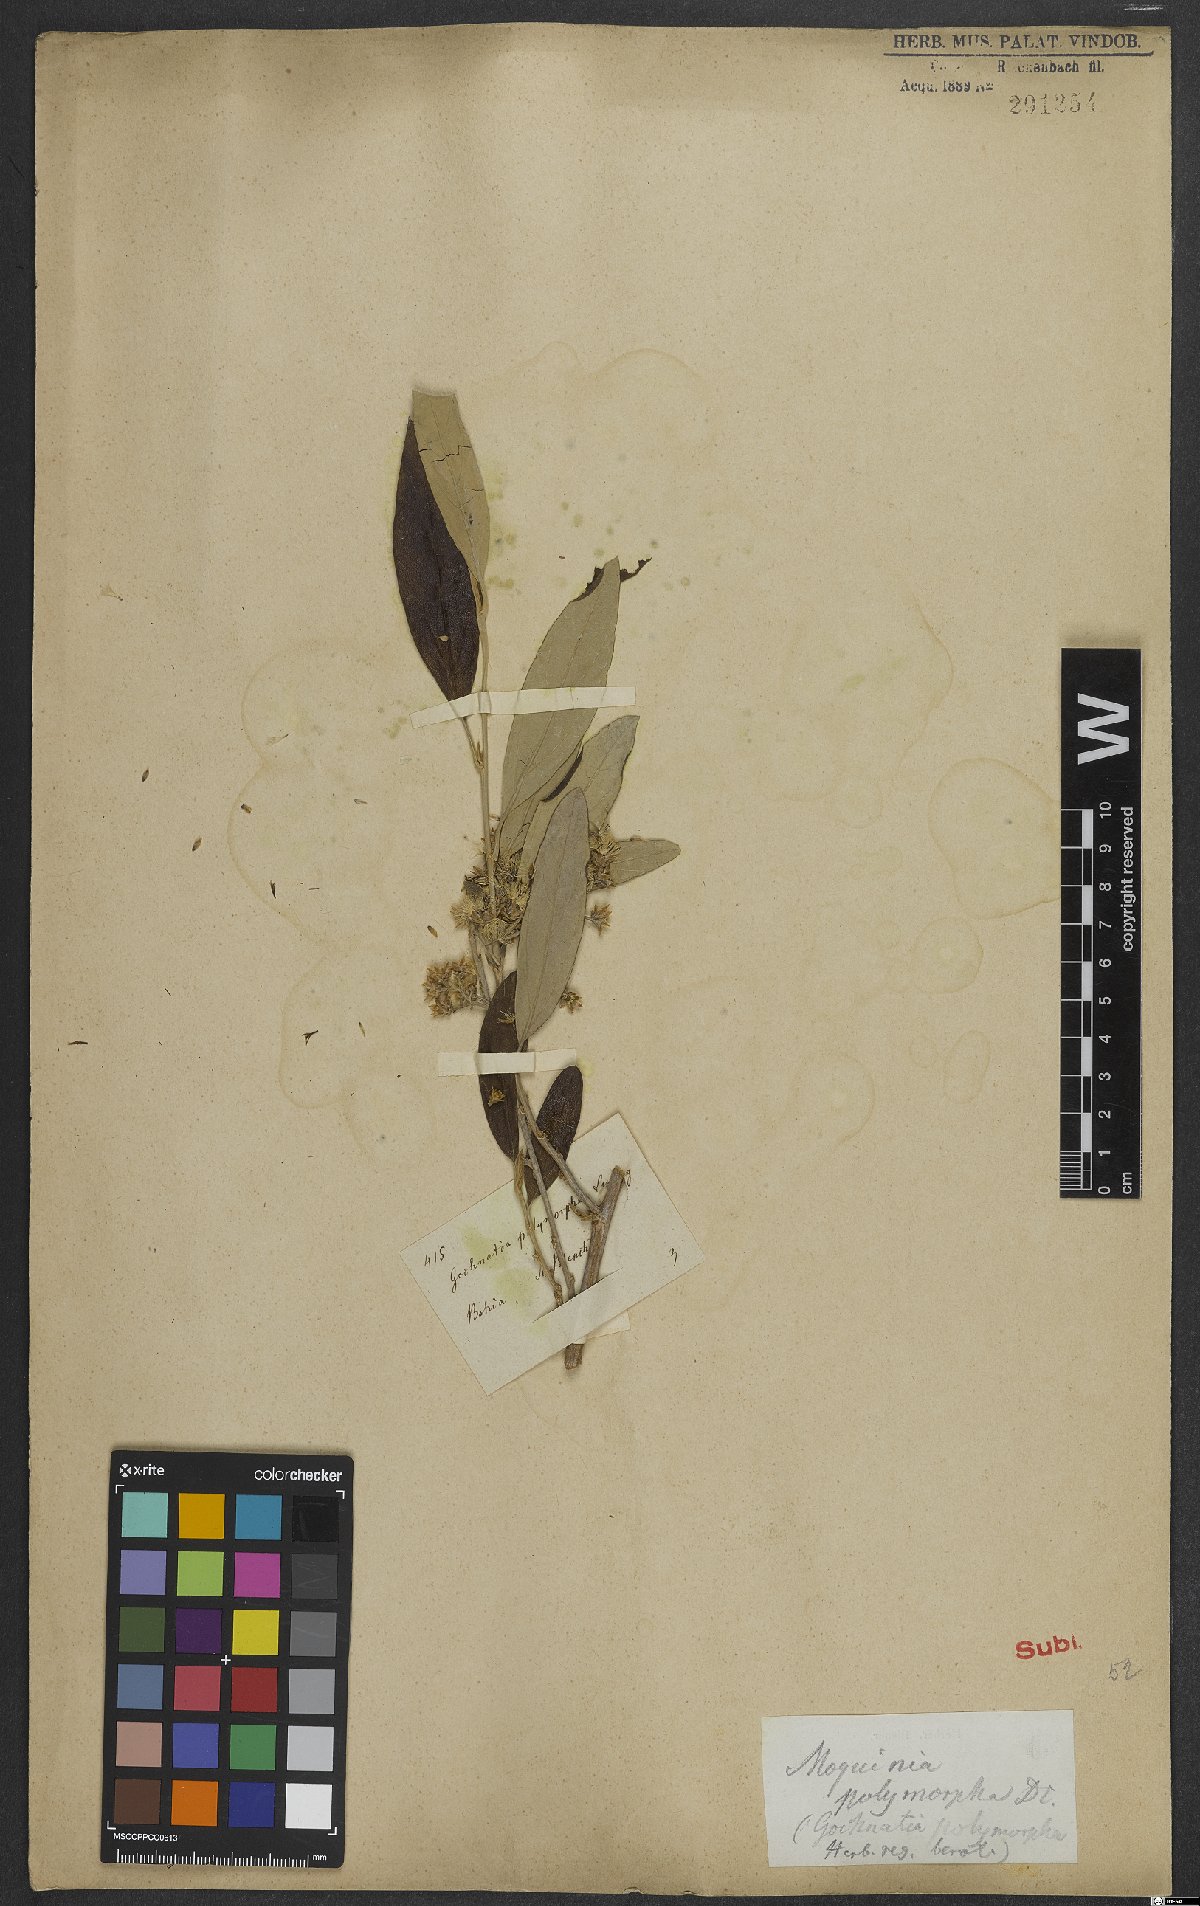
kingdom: Plantae
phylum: Tracheophyta
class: Magnoliopsida
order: Asterales
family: Asteraceae
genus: Moquiniastrum
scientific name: Moquiniastrum polymorphum
